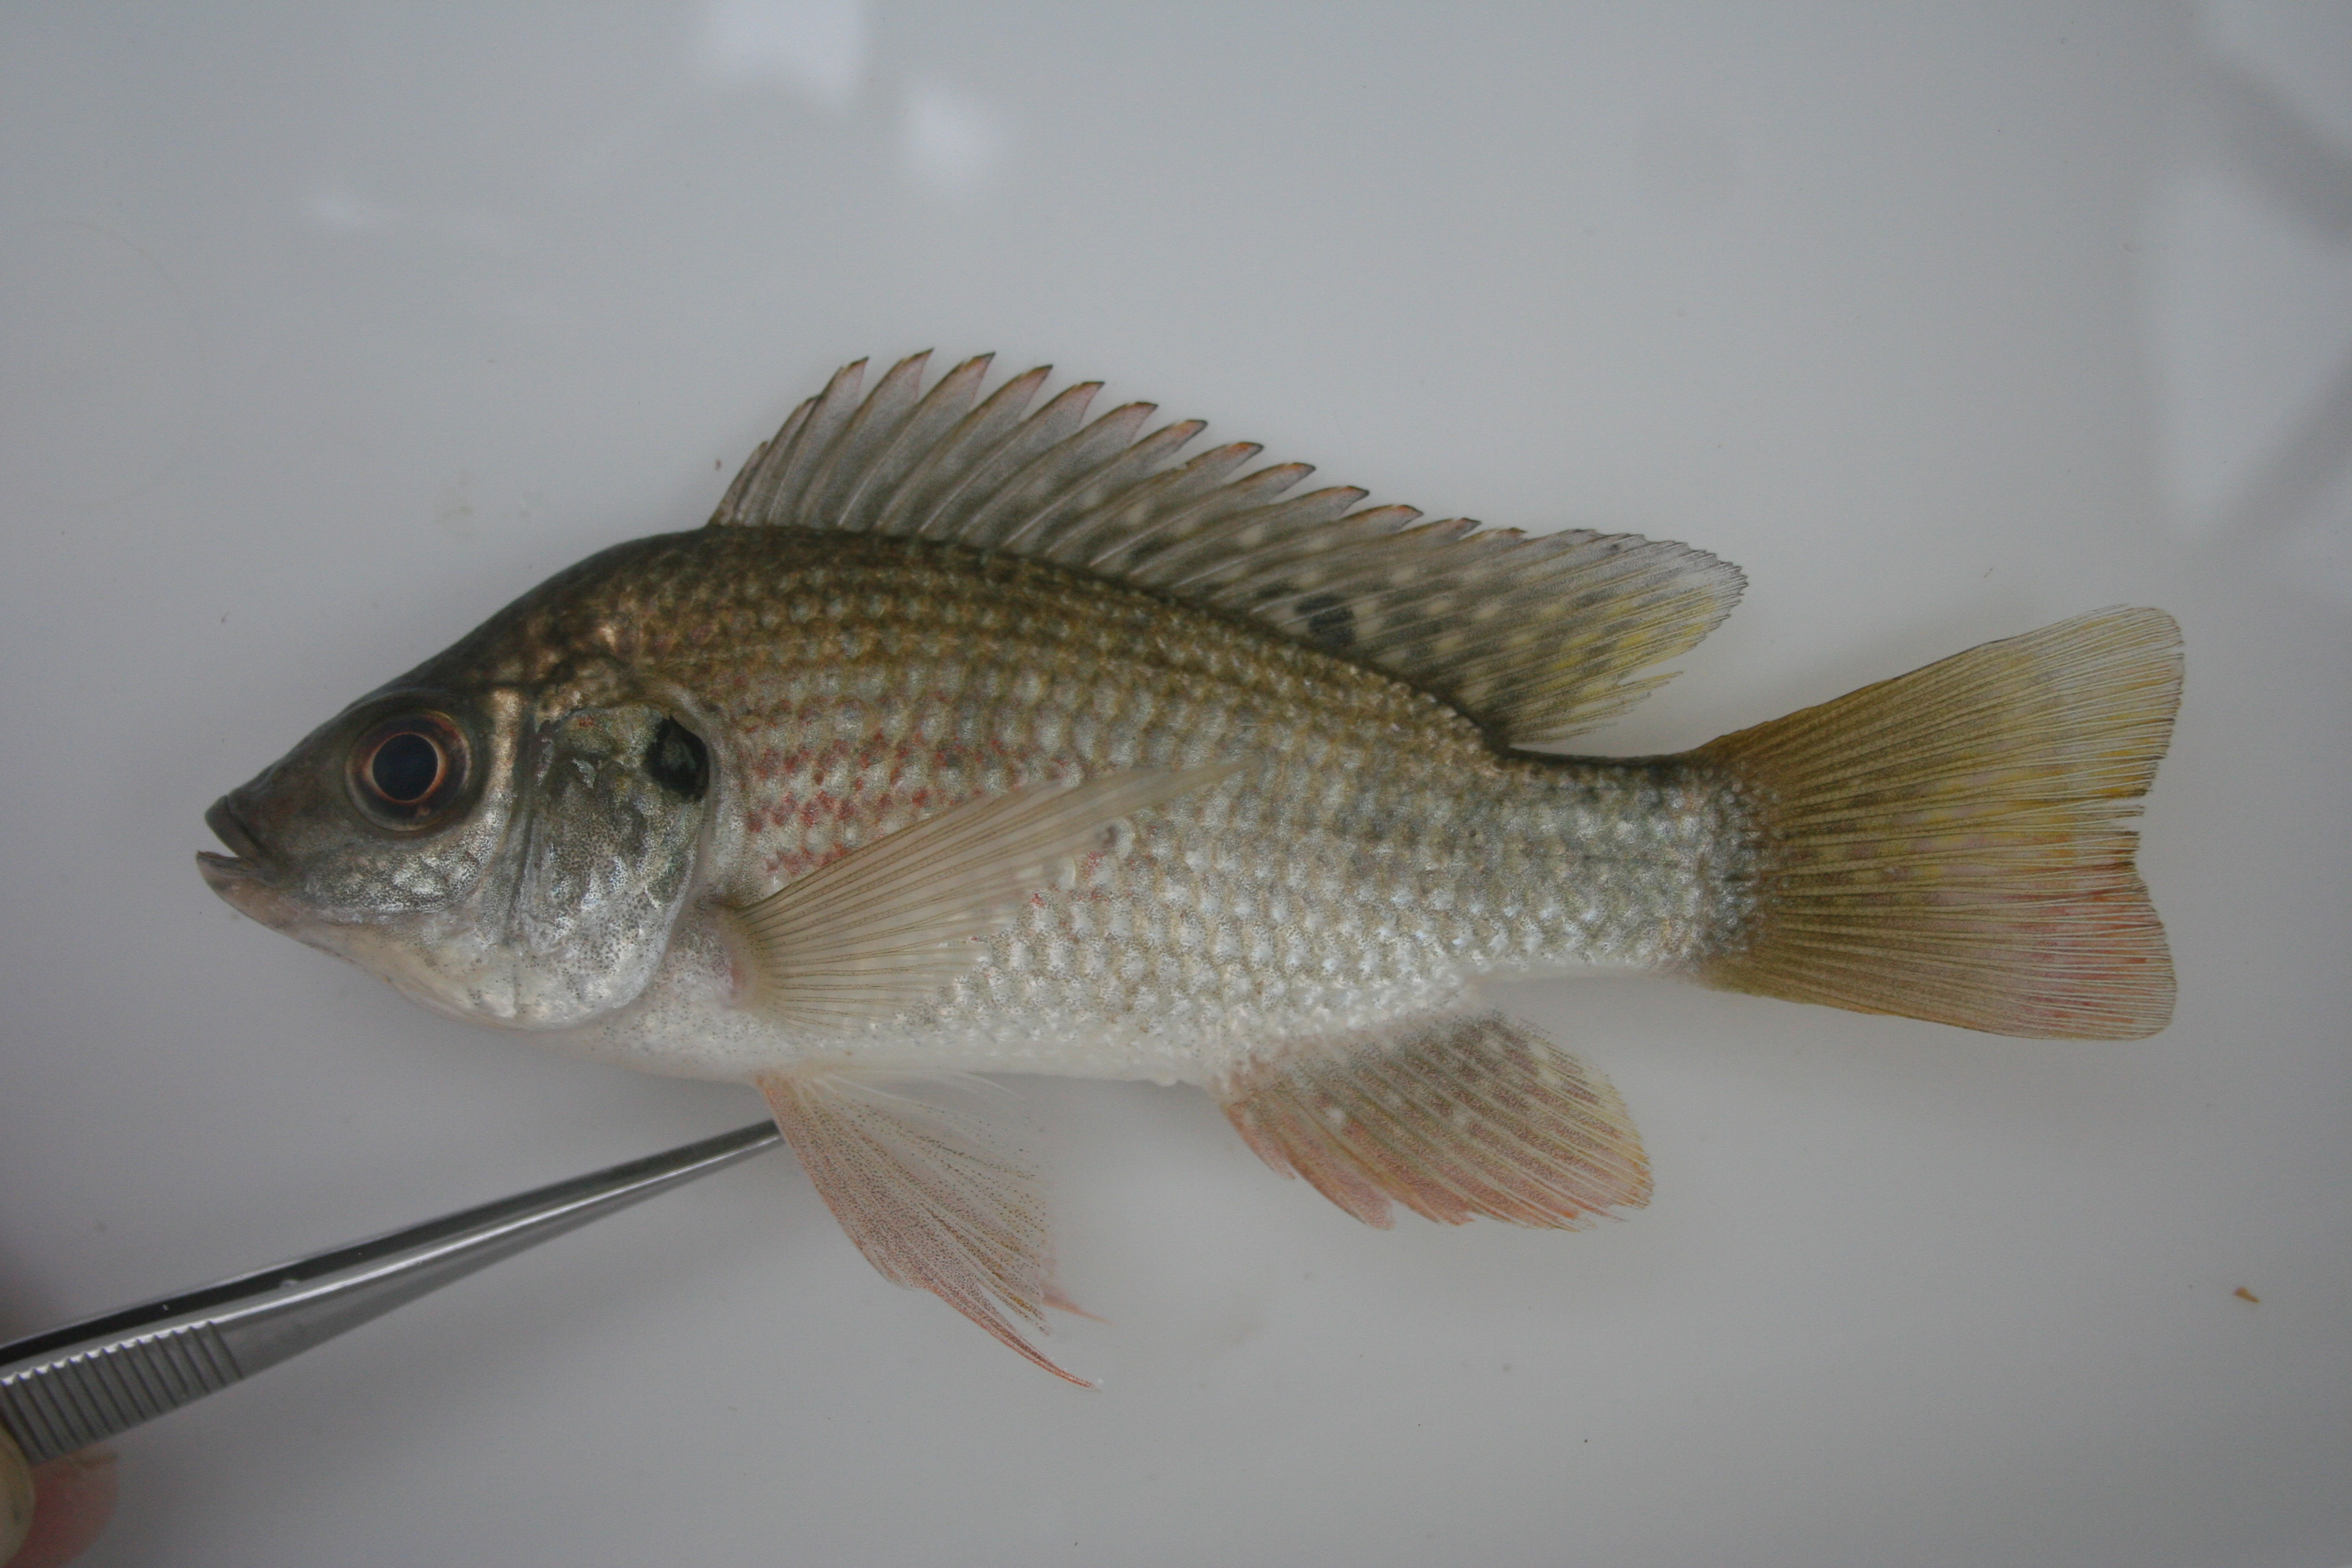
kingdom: Animalia
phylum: Chordata
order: Perciformes
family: Cichlidae
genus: Oreochromis
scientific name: Oreochromis angolensis
